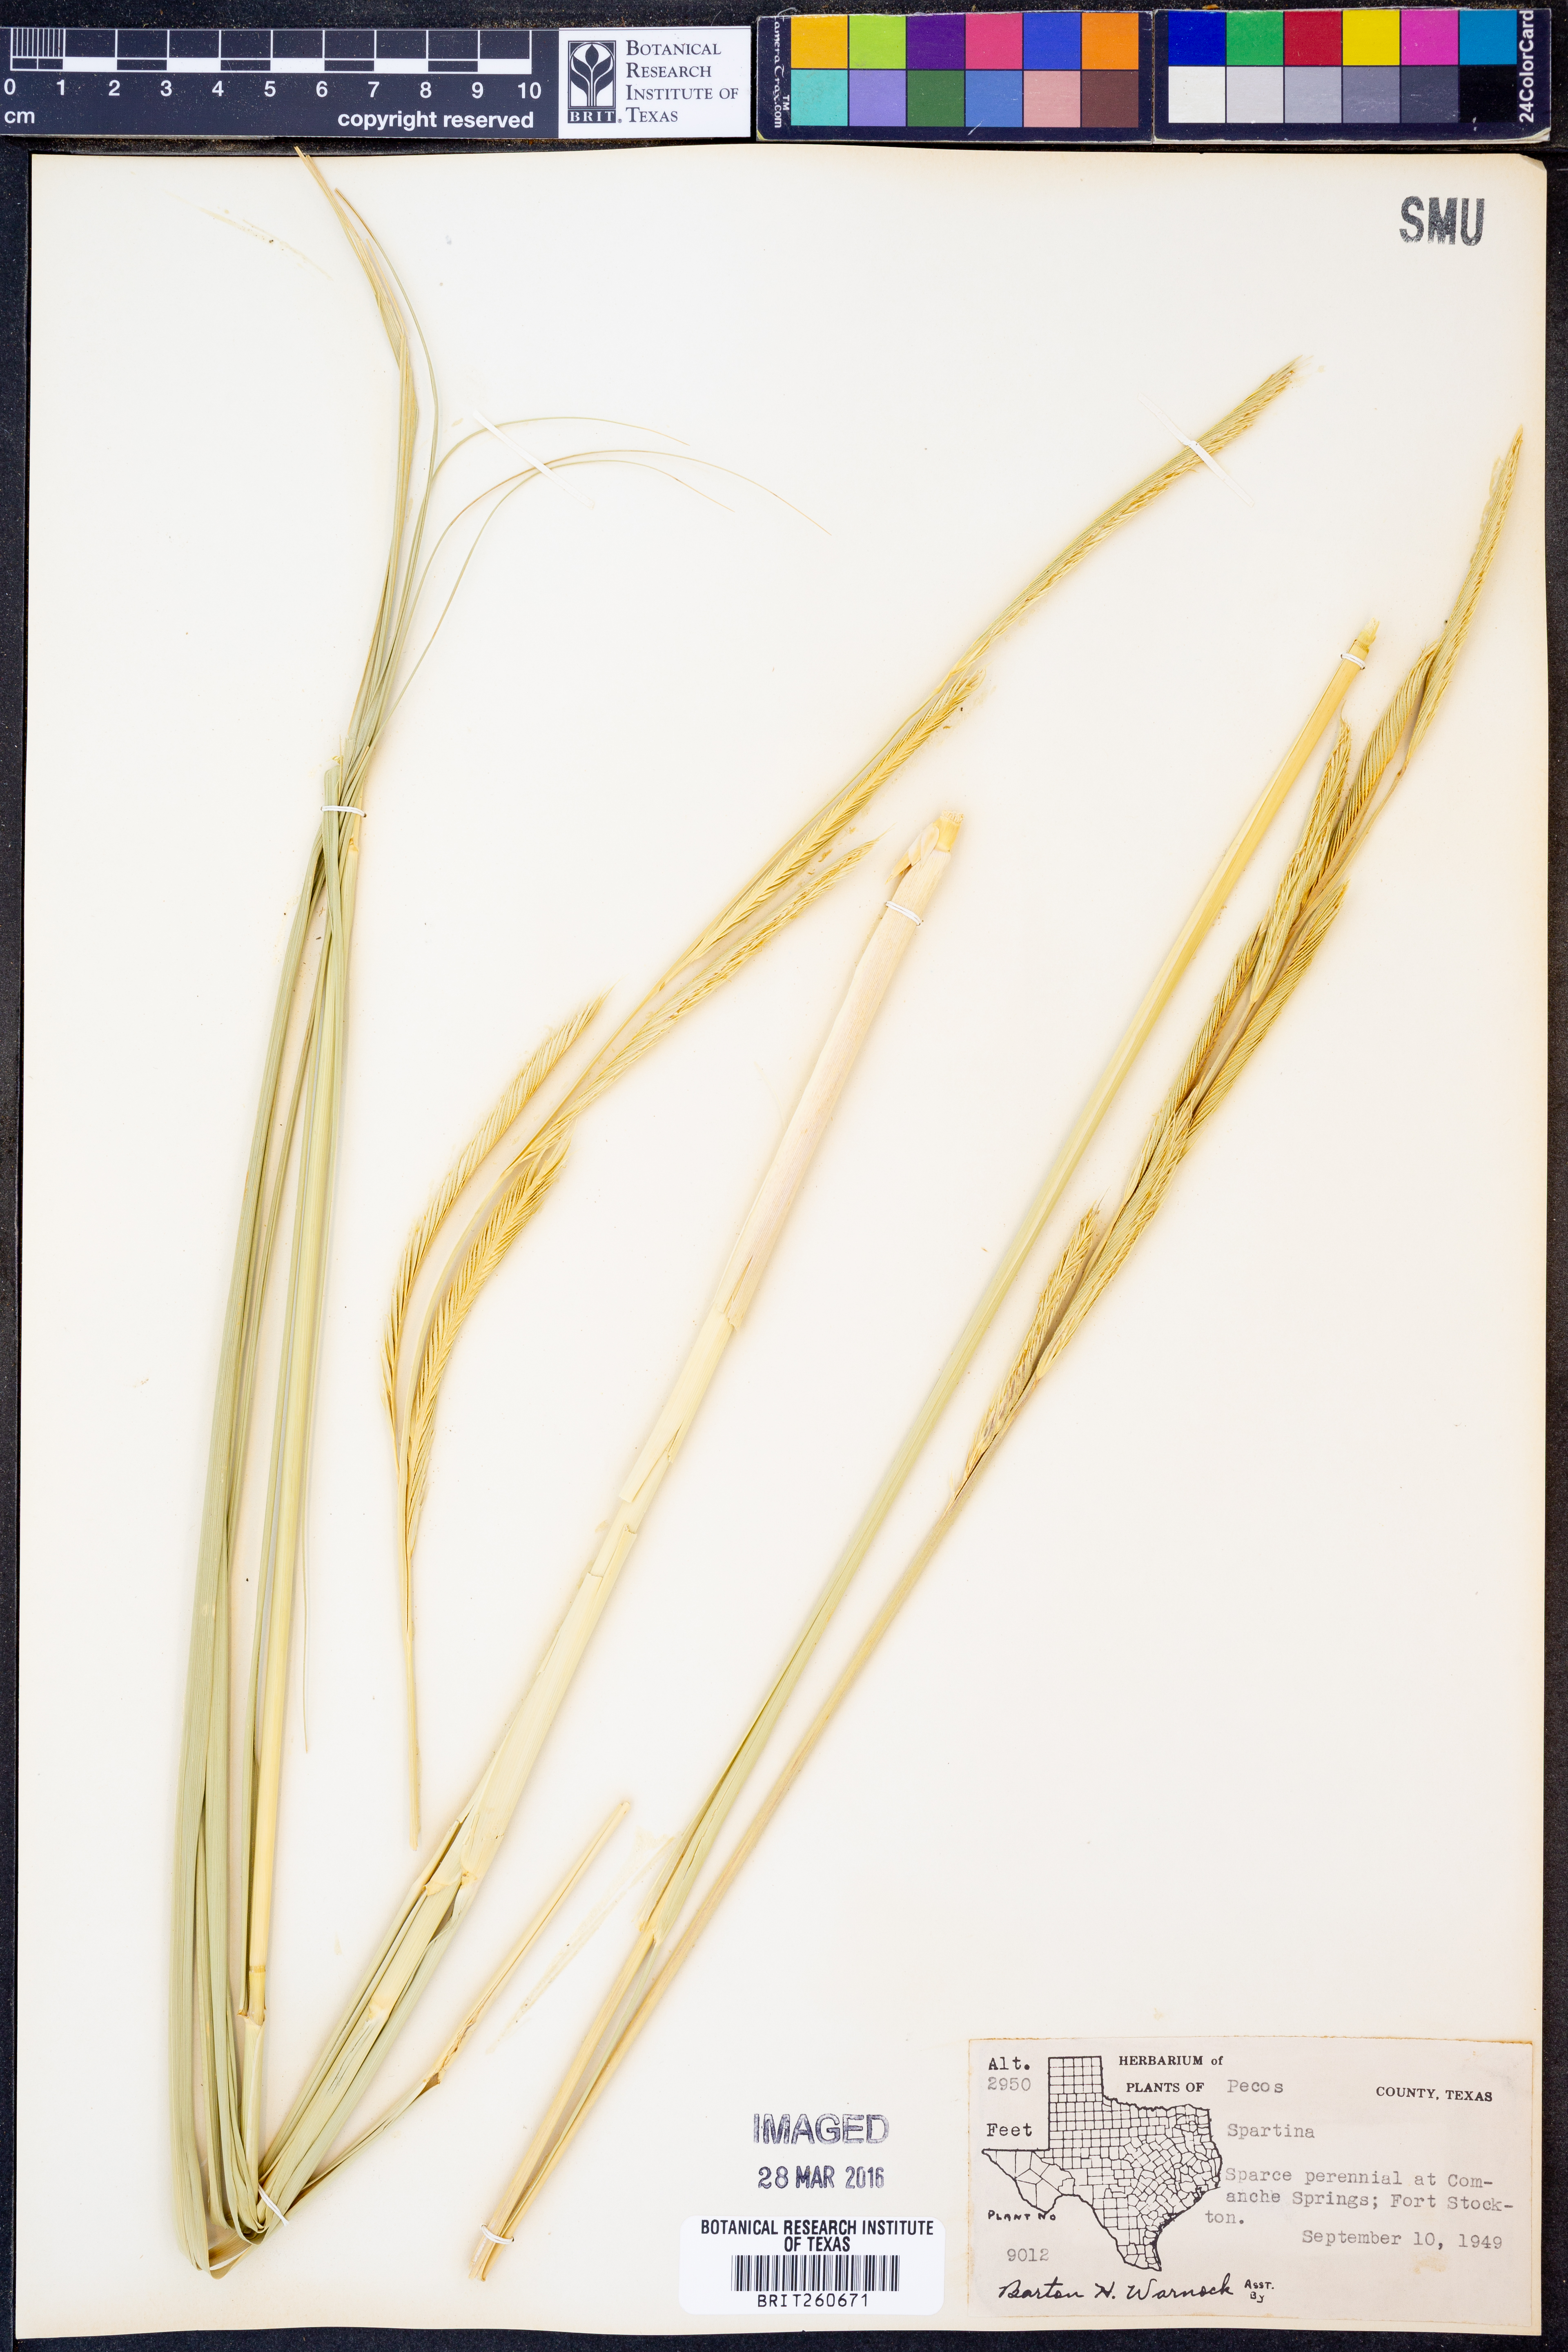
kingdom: Animalia
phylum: Mollusca
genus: Spartina
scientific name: Spartina
